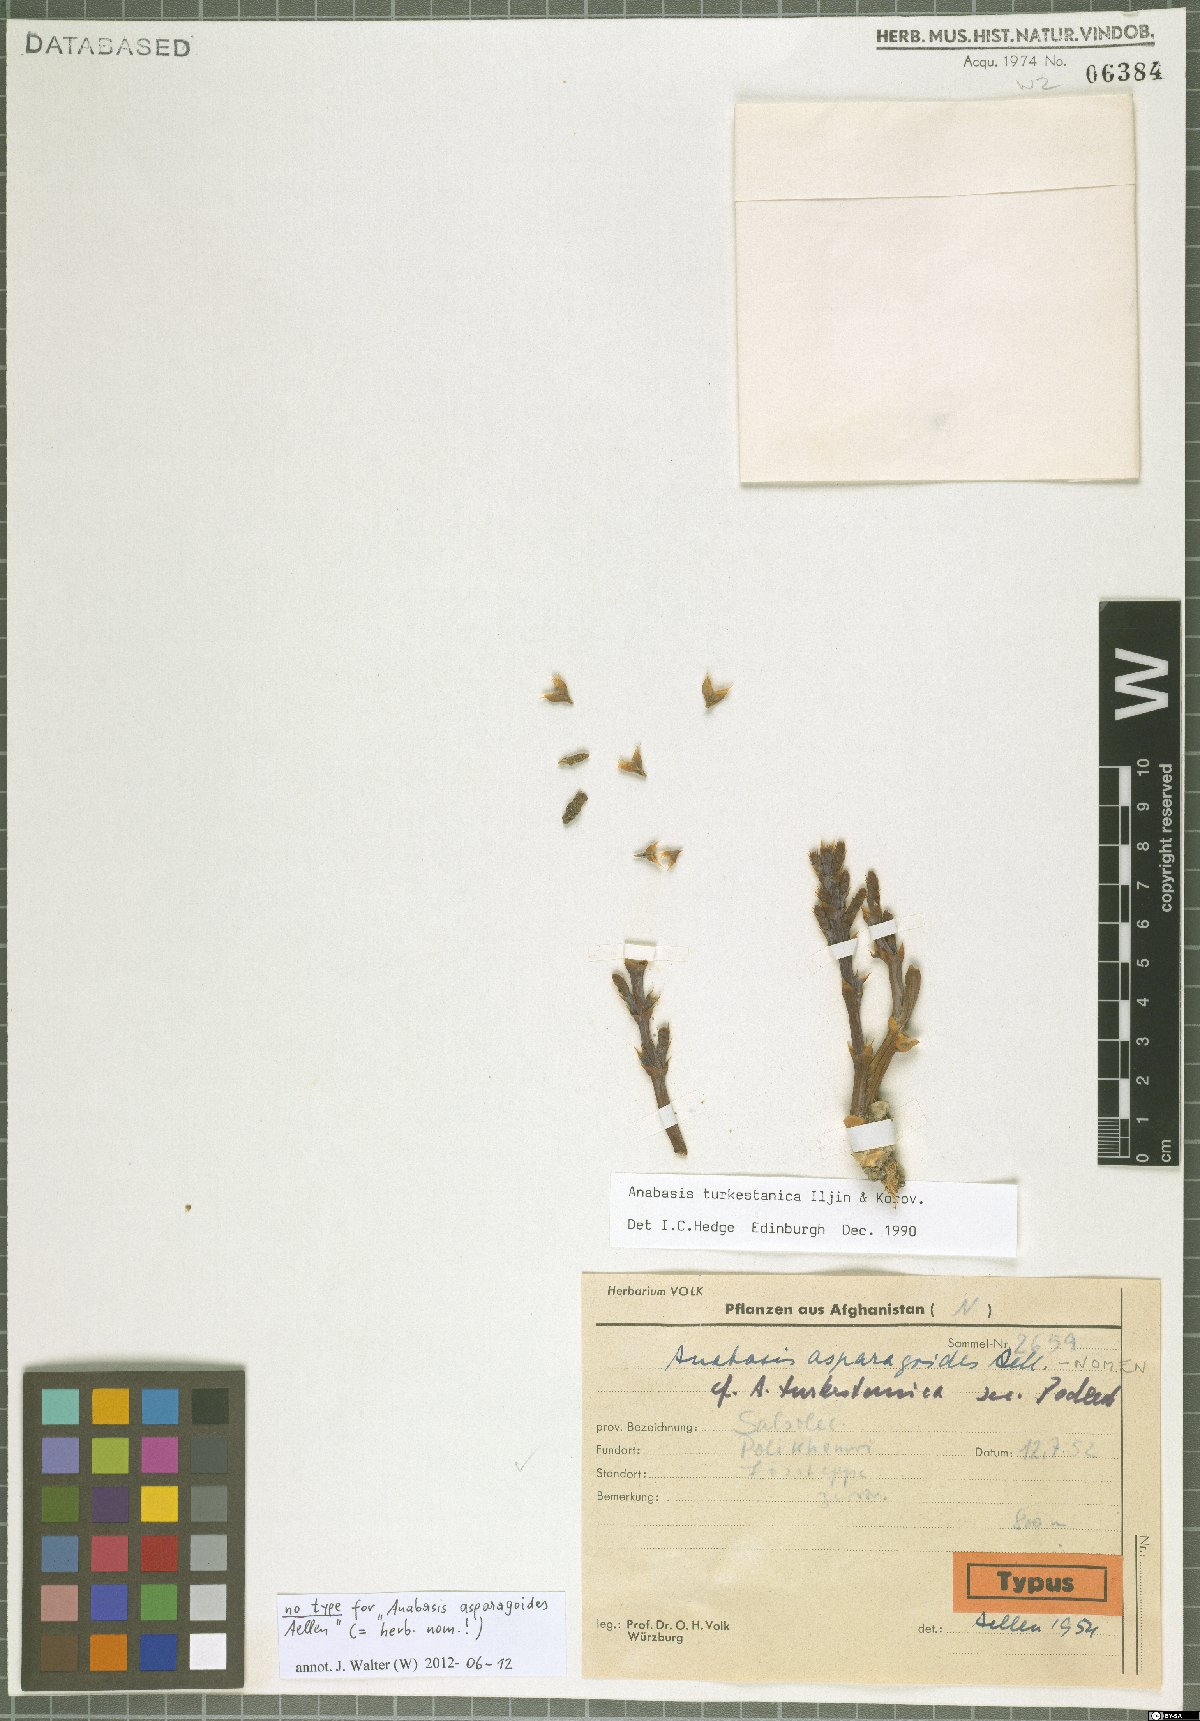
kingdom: Plantae
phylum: Tracheophyta
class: Magnoliopsida
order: Caryophyllales
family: Amaranthaceae
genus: Anabasis
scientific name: Anabasis turkestanica
